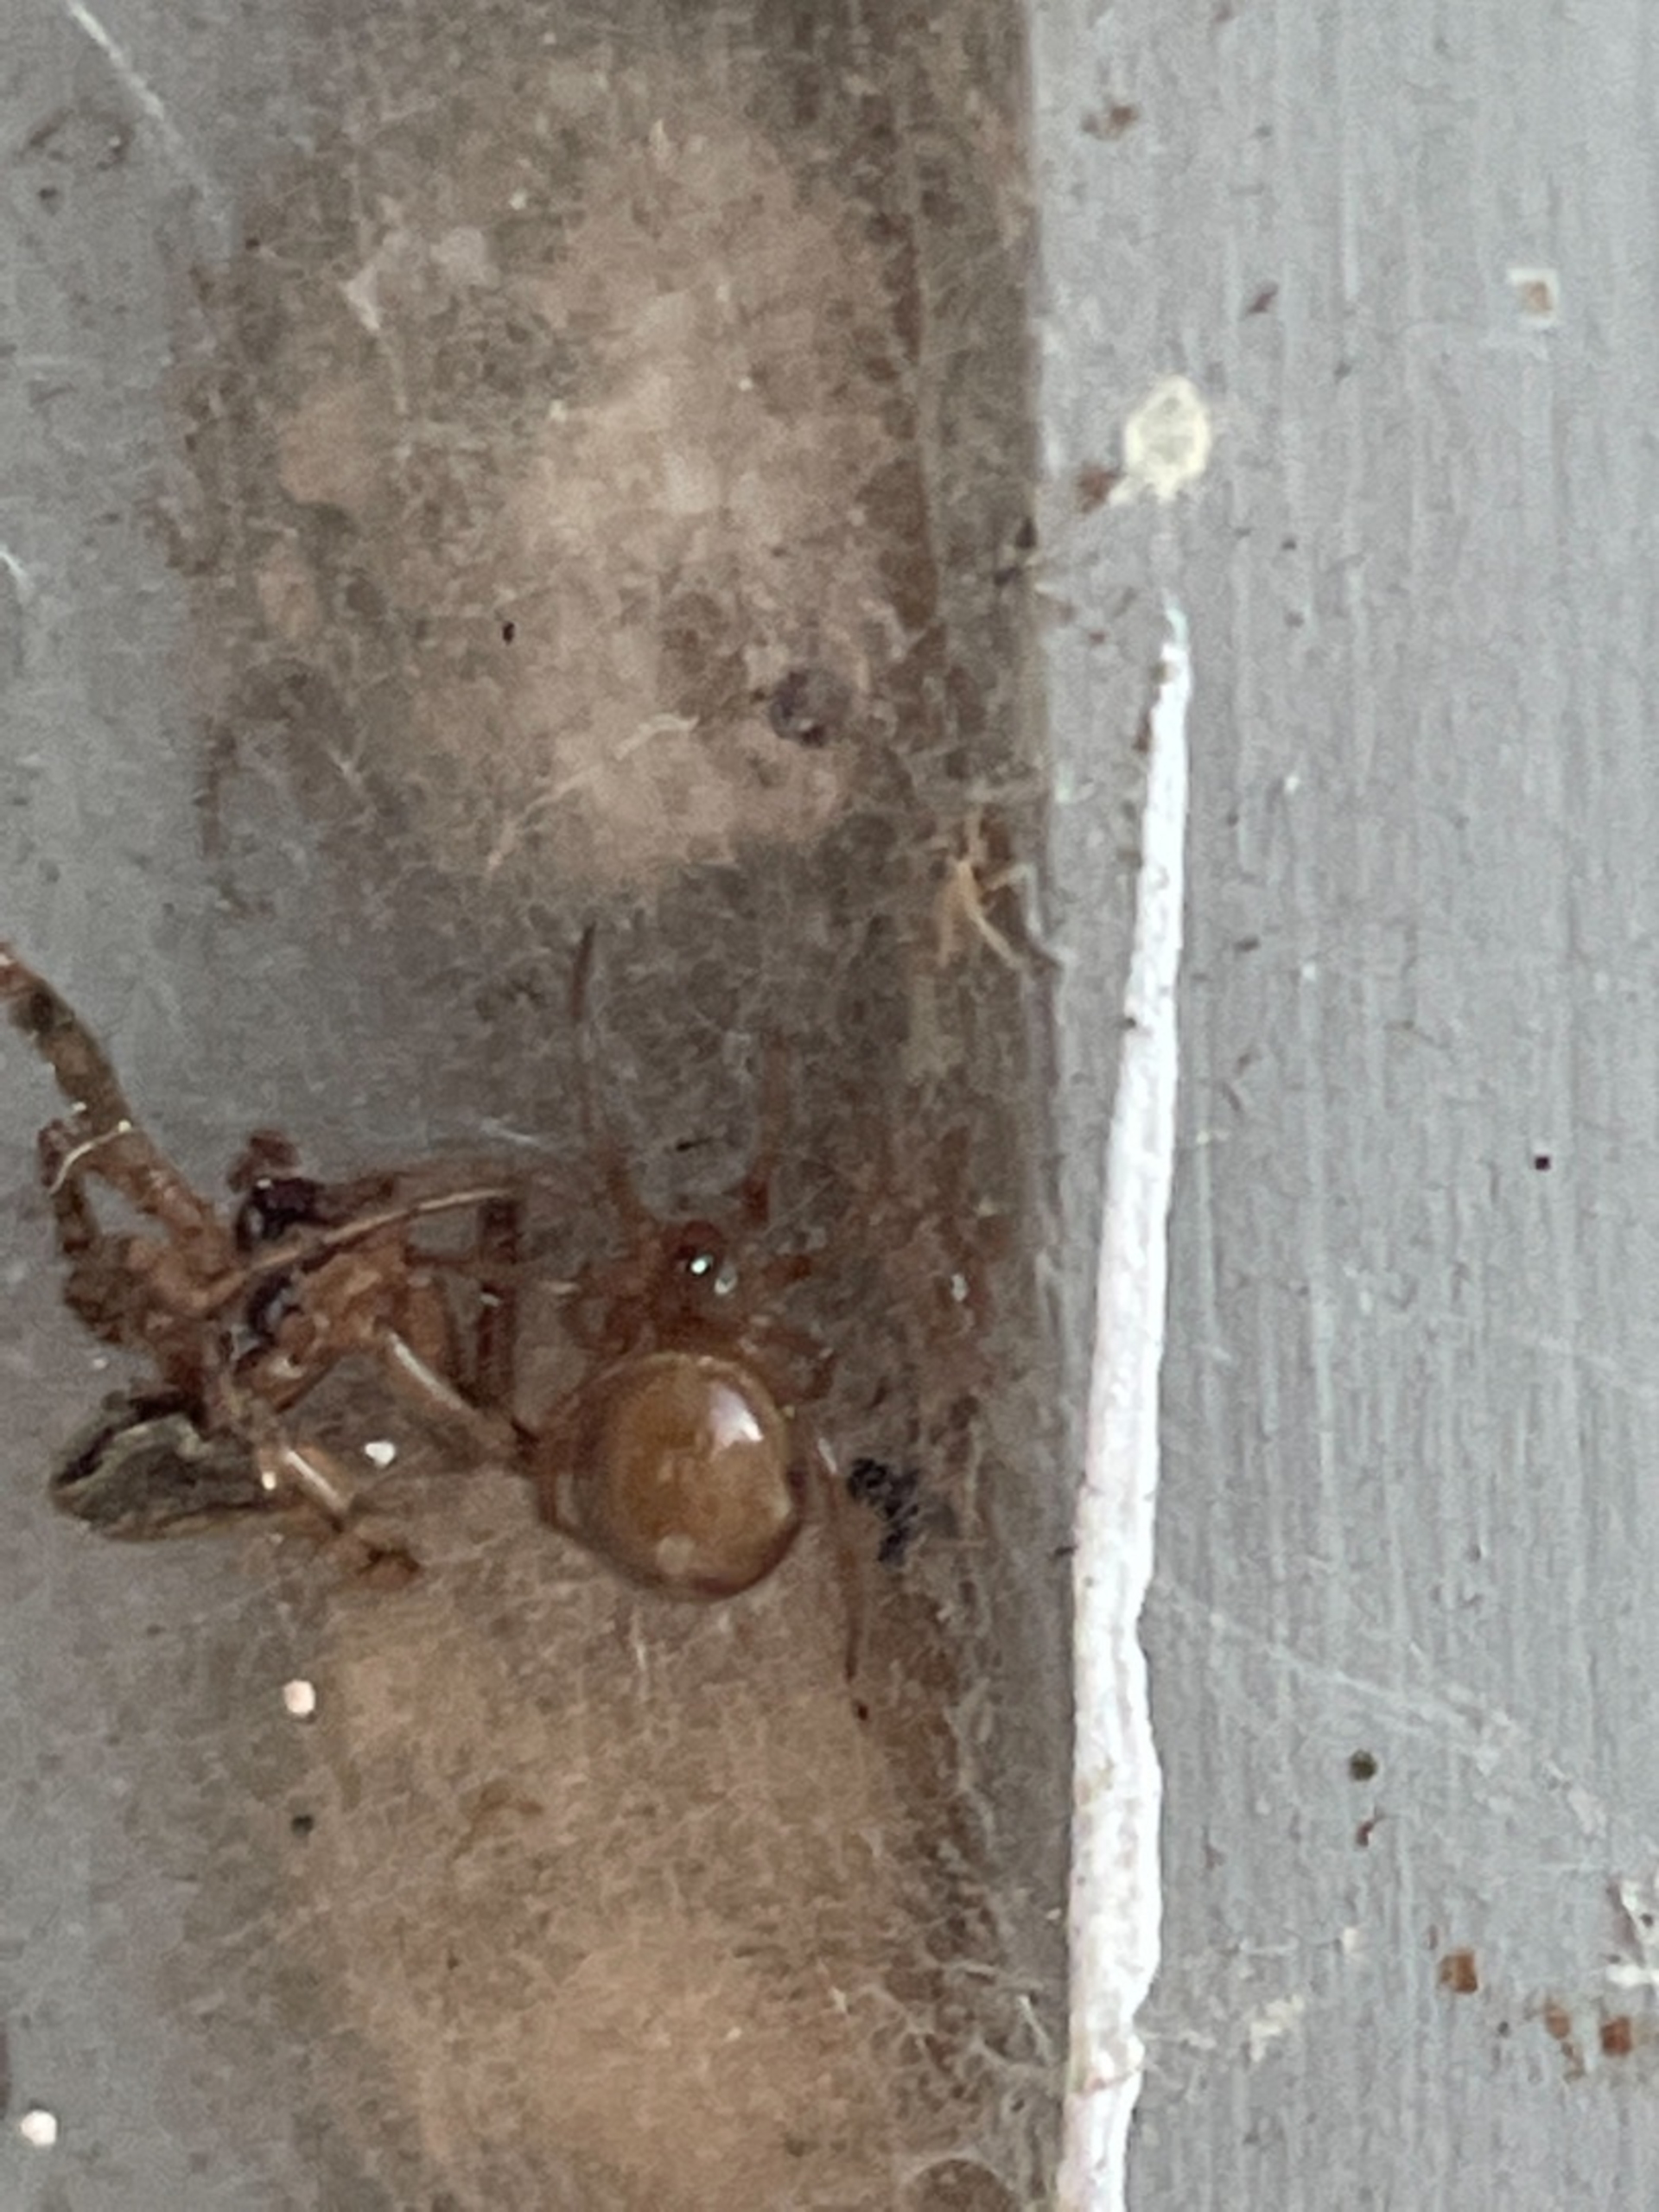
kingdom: Animalia
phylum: Arthropoda
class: Arachnida
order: Araneae
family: Theridiidae
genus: Steatoda
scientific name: Steatoda bipunctata
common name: Fedtedderkop
